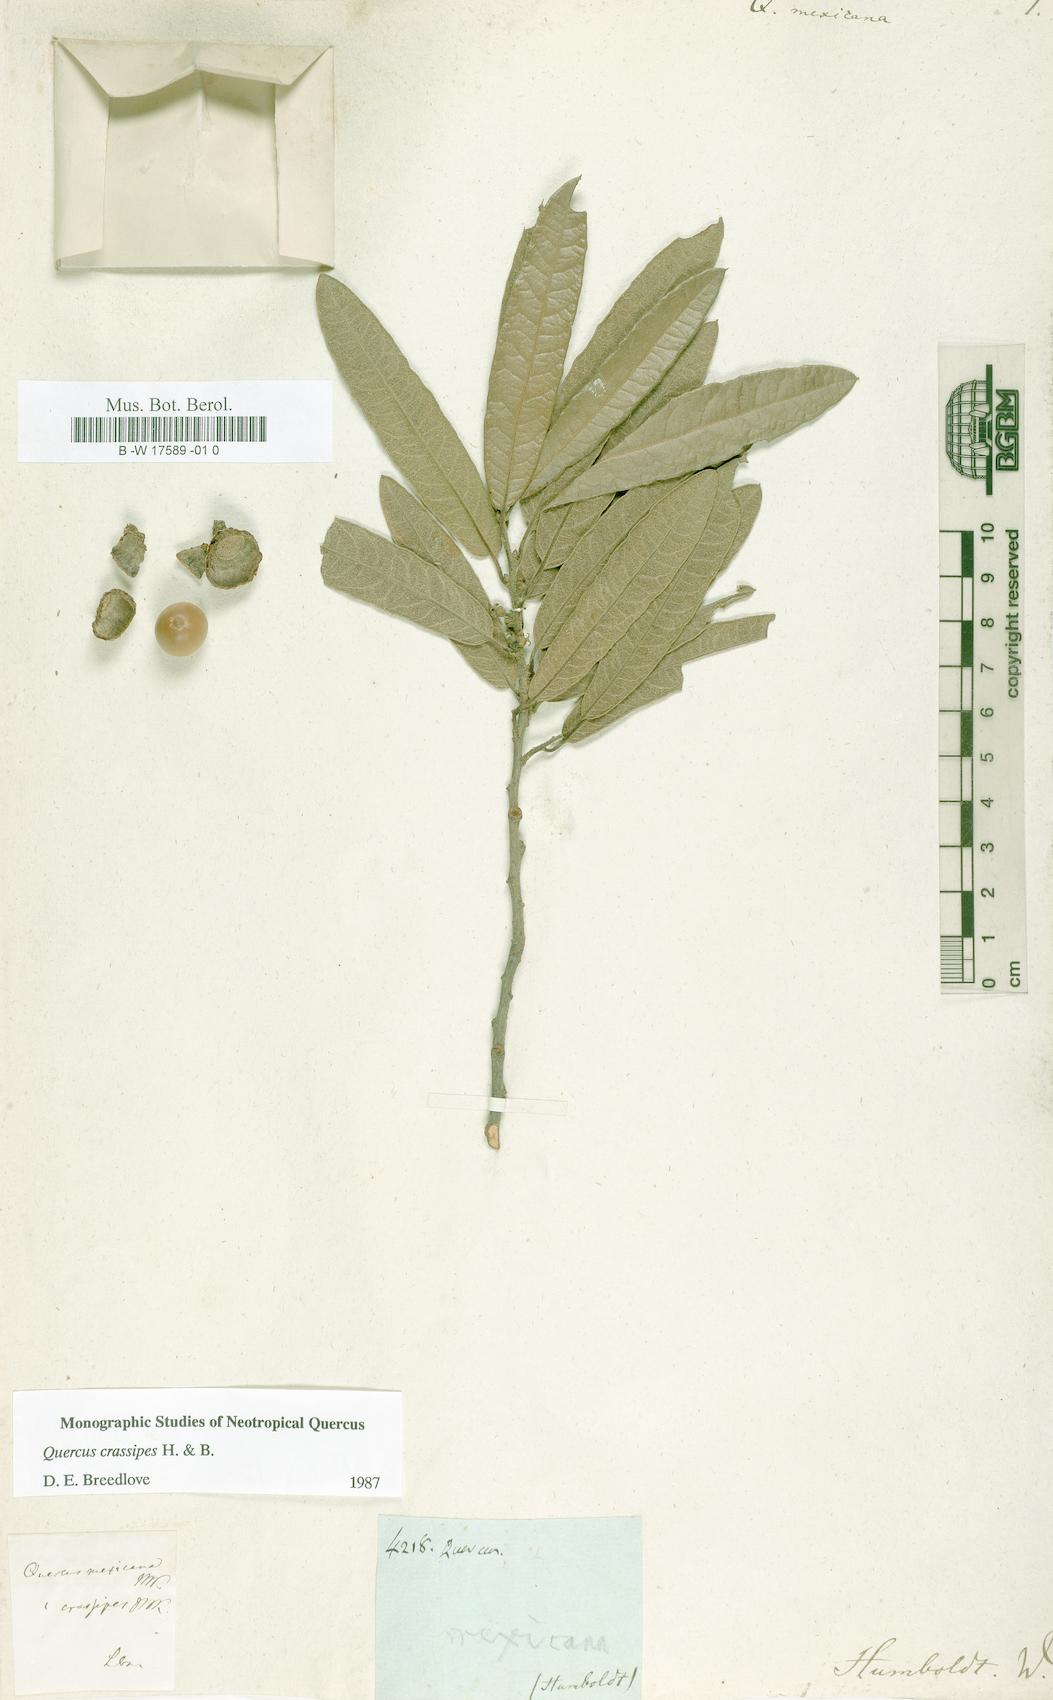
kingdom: Plantae
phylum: Tracheophyta
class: Magnoliopsida
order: Fagales
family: Fagaceae
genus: Quercus
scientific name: Quercus mexicana
